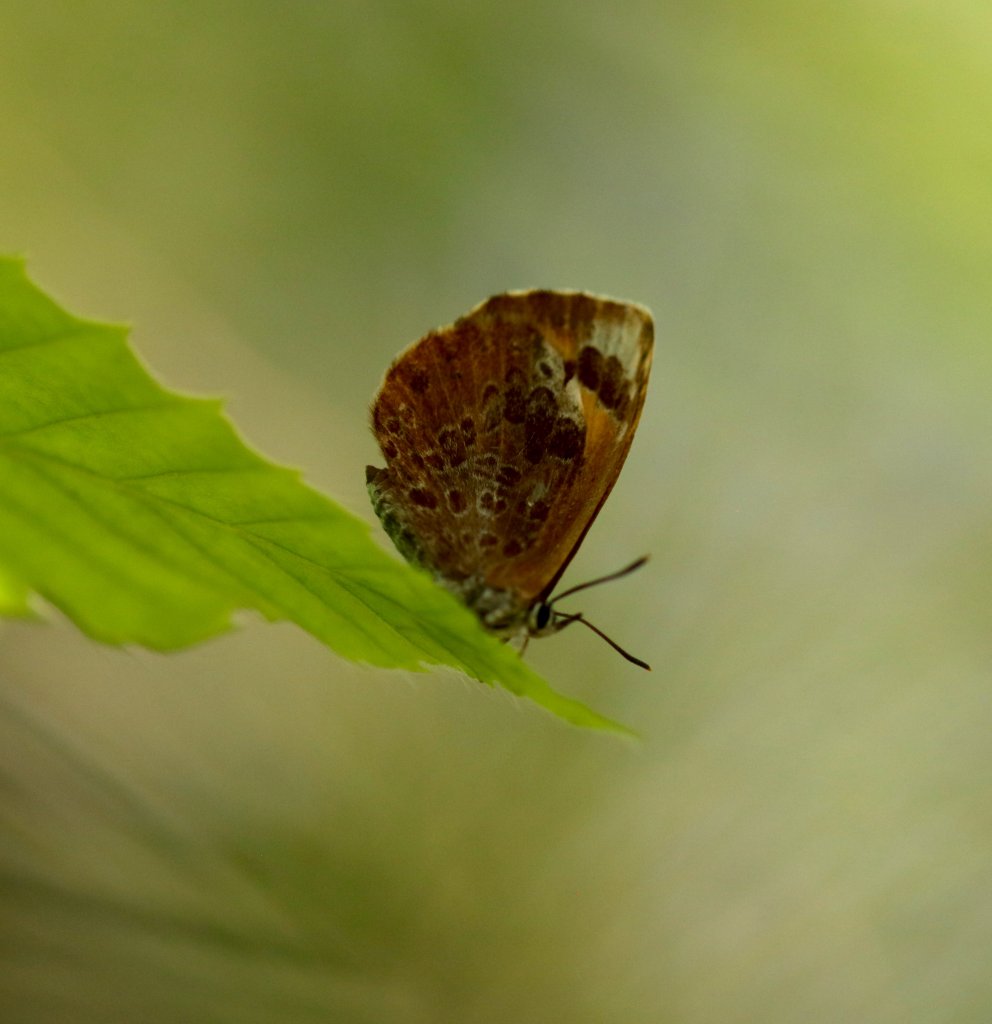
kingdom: Animalia
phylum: Arthropoda
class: Insecta
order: Lepidoptera
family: Lycaenidae
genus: Feniseca
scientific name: Feniseca tarquinius
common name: Harvester
